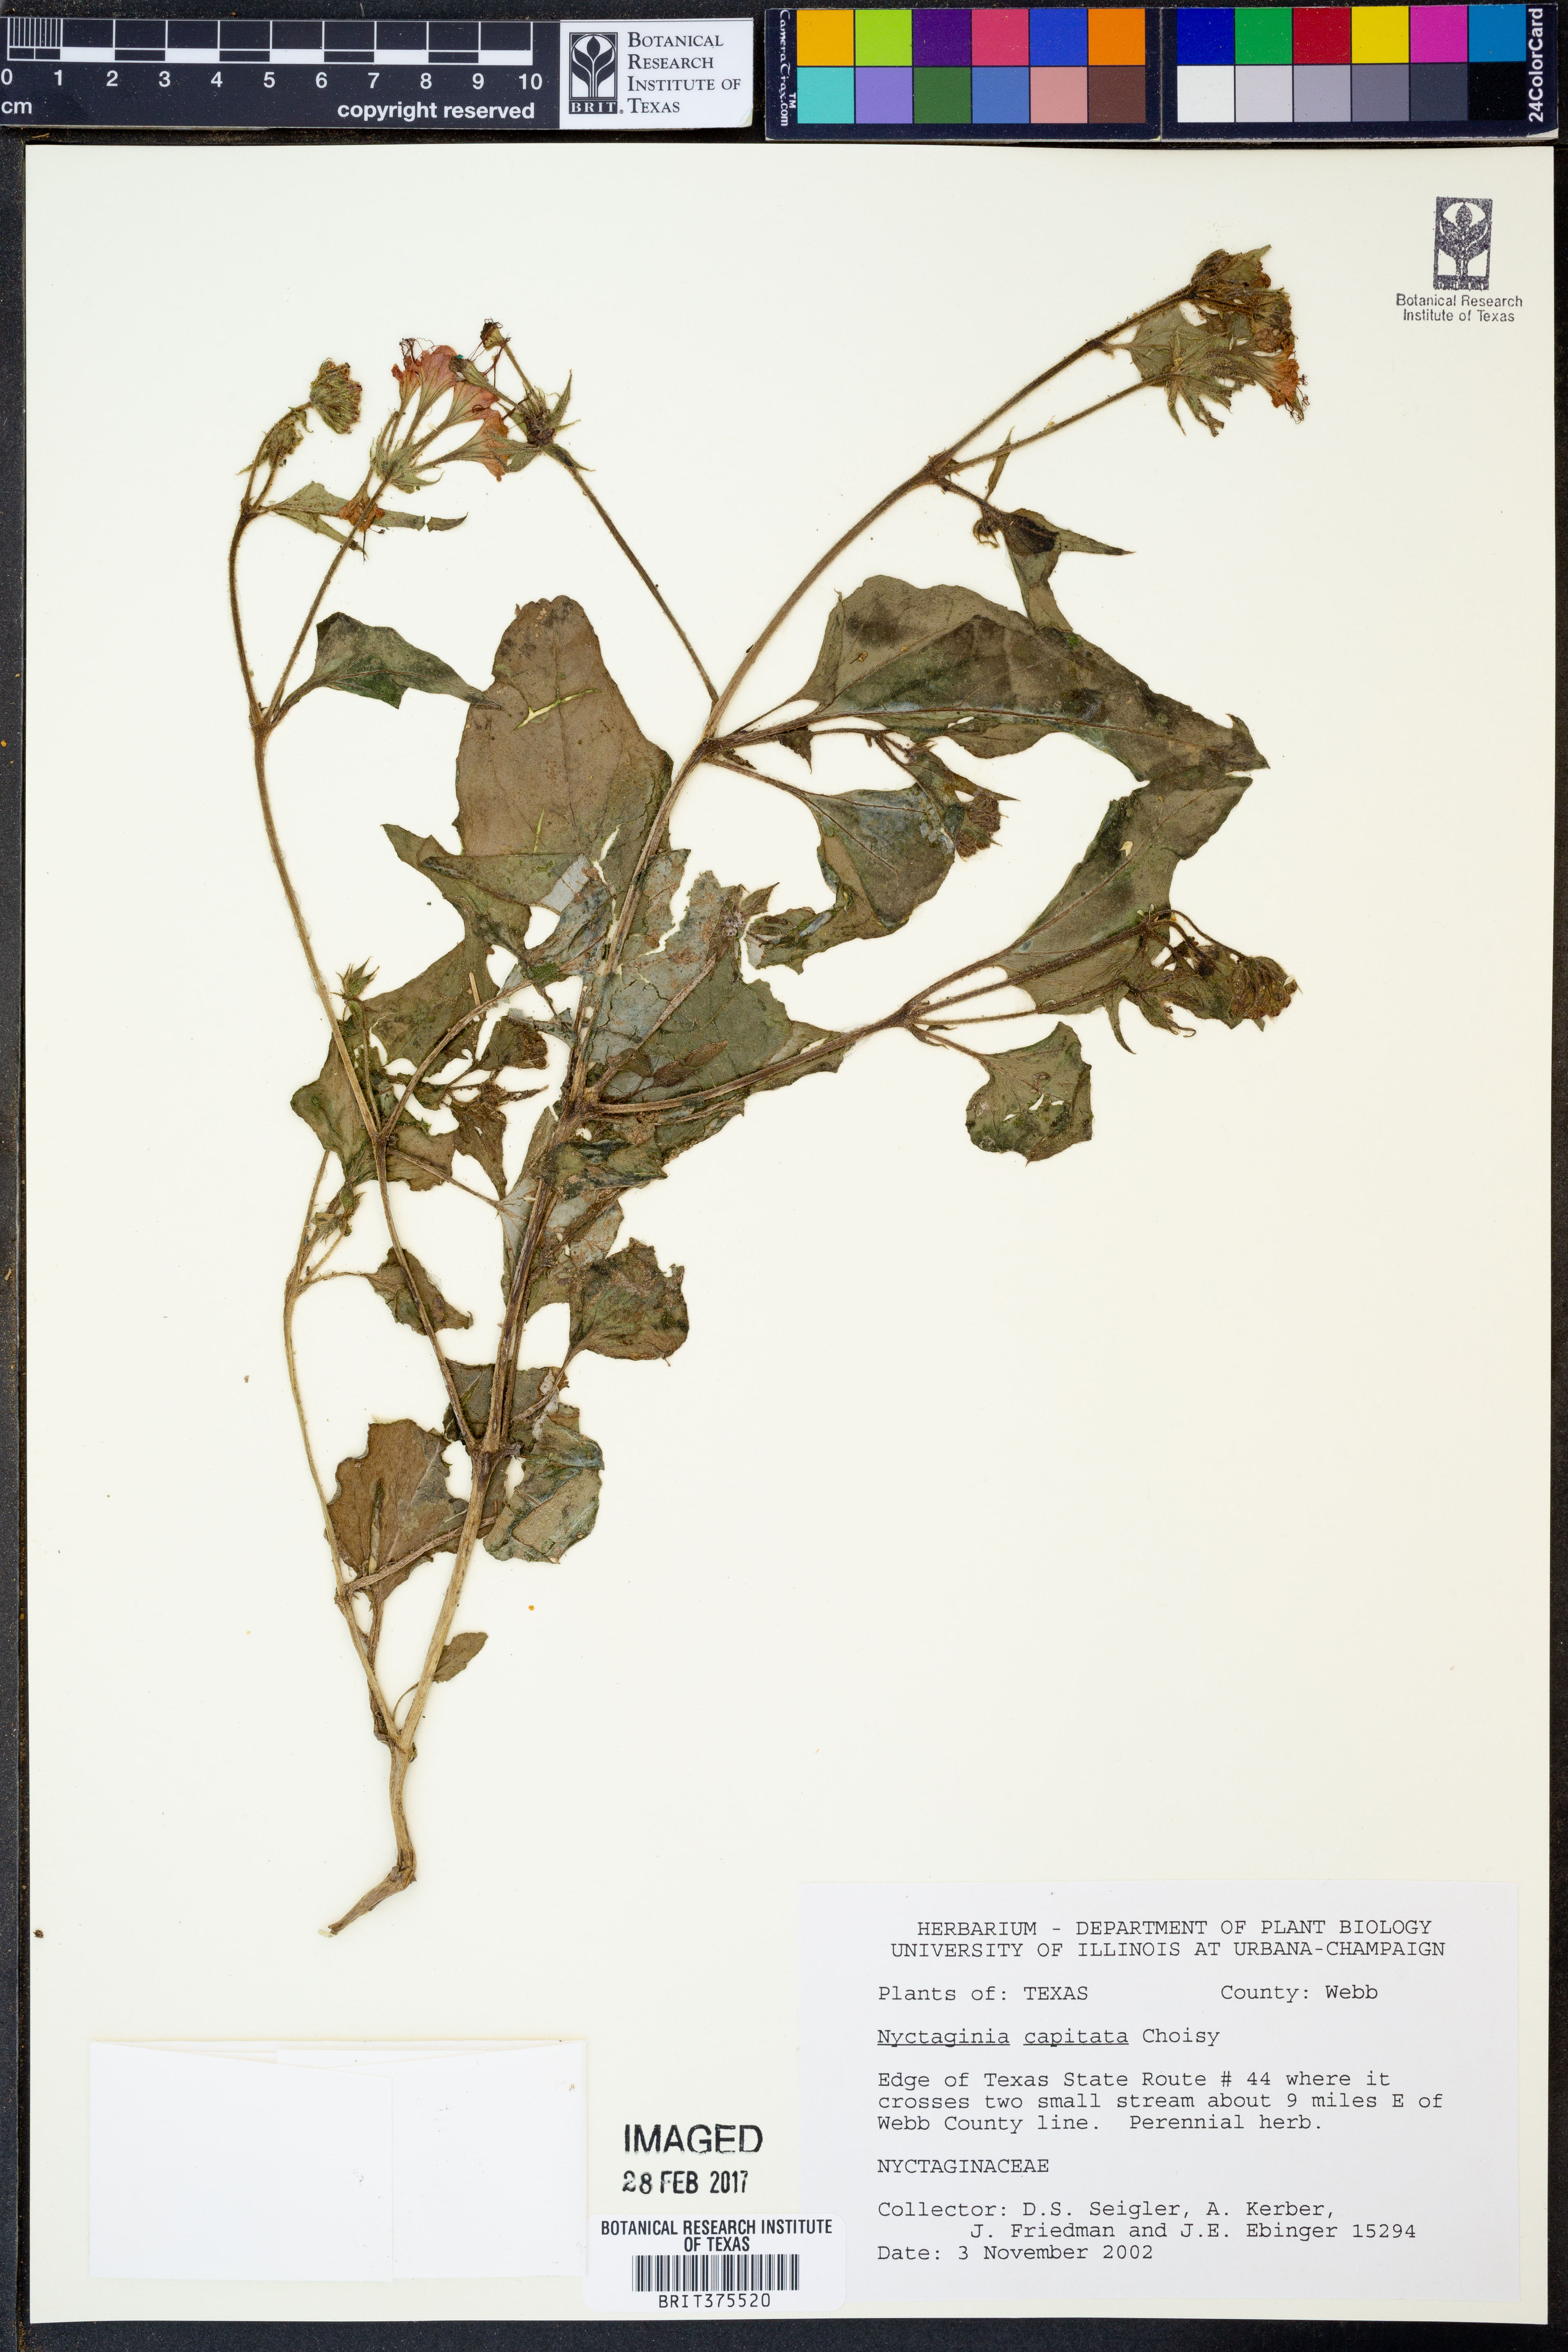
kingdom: Plantae
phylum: Tracheophyta
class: Magnoliopsida
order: Caryophyllales
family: Nyctaginaceae
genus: Nyctaginia
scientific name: Nyctaginia capitata
